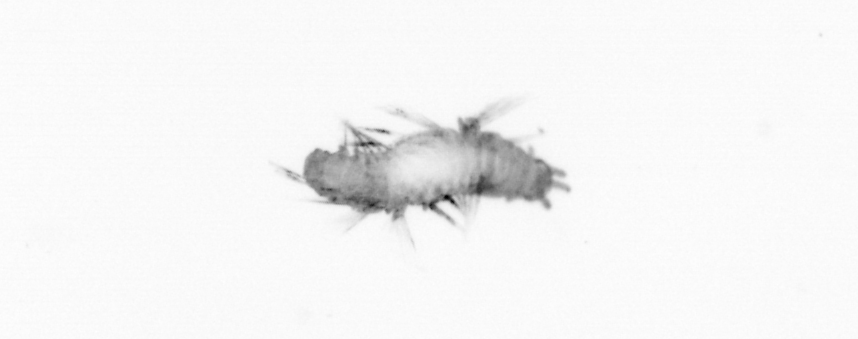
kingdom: Animalia
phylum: Annelida
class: Polychaeta
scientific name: Polychaeta
